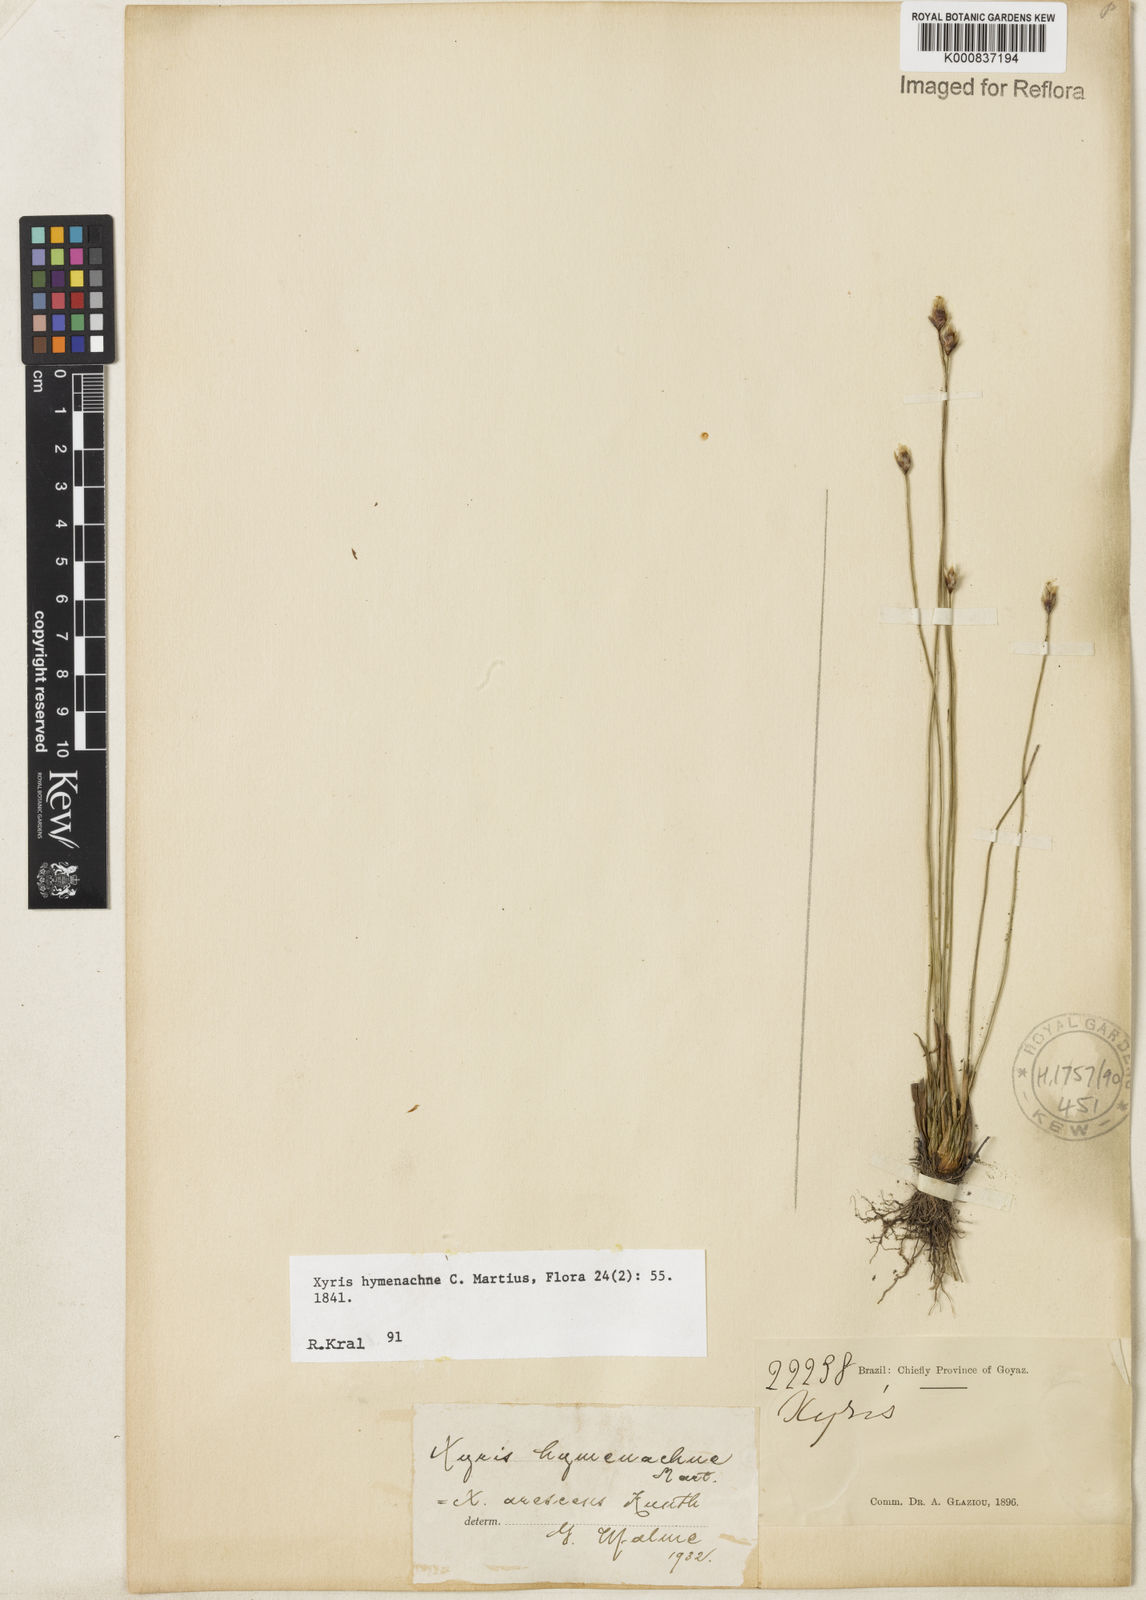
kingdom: Plantae
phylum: Tracheophyta
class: Liliopsida
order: Poales
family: Xyridaceae
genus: Xyris
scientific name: Xyris hymenachne
